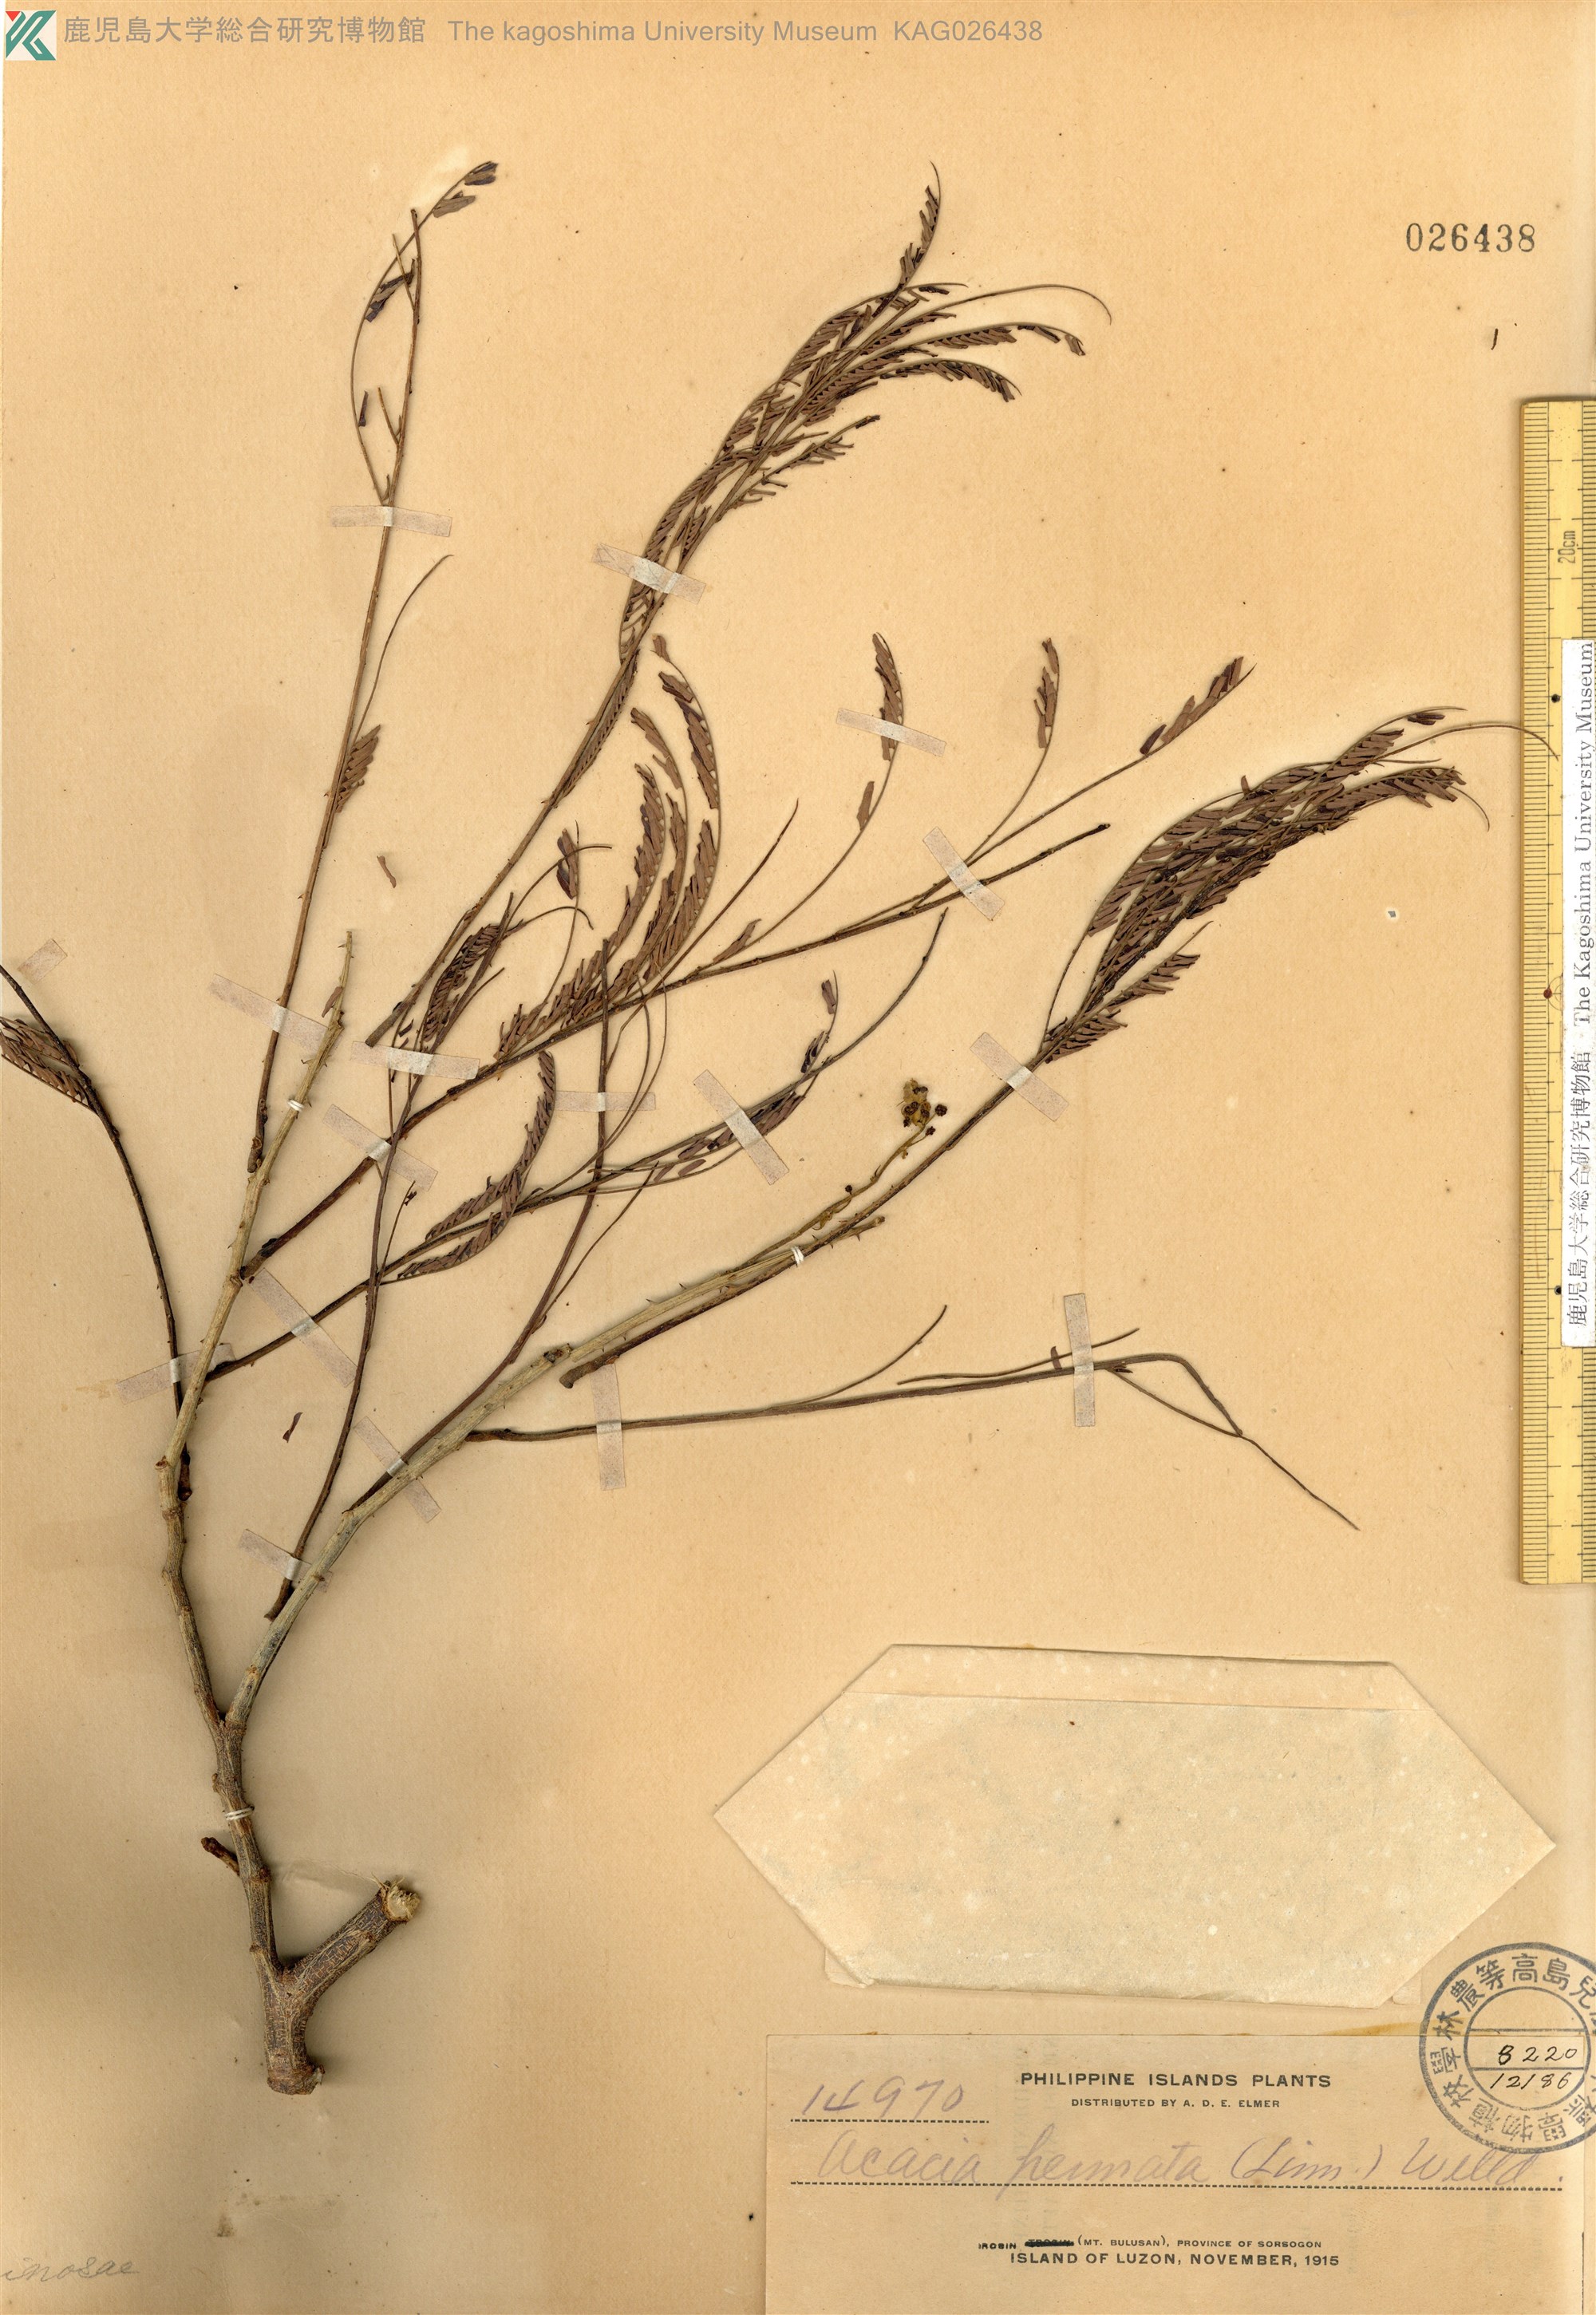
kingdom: Plantae
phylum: Tracheophyta
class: Magnoliopsida
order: Fabales
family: Fabaceae
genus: Senegalia
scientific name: Senegalia pennata
